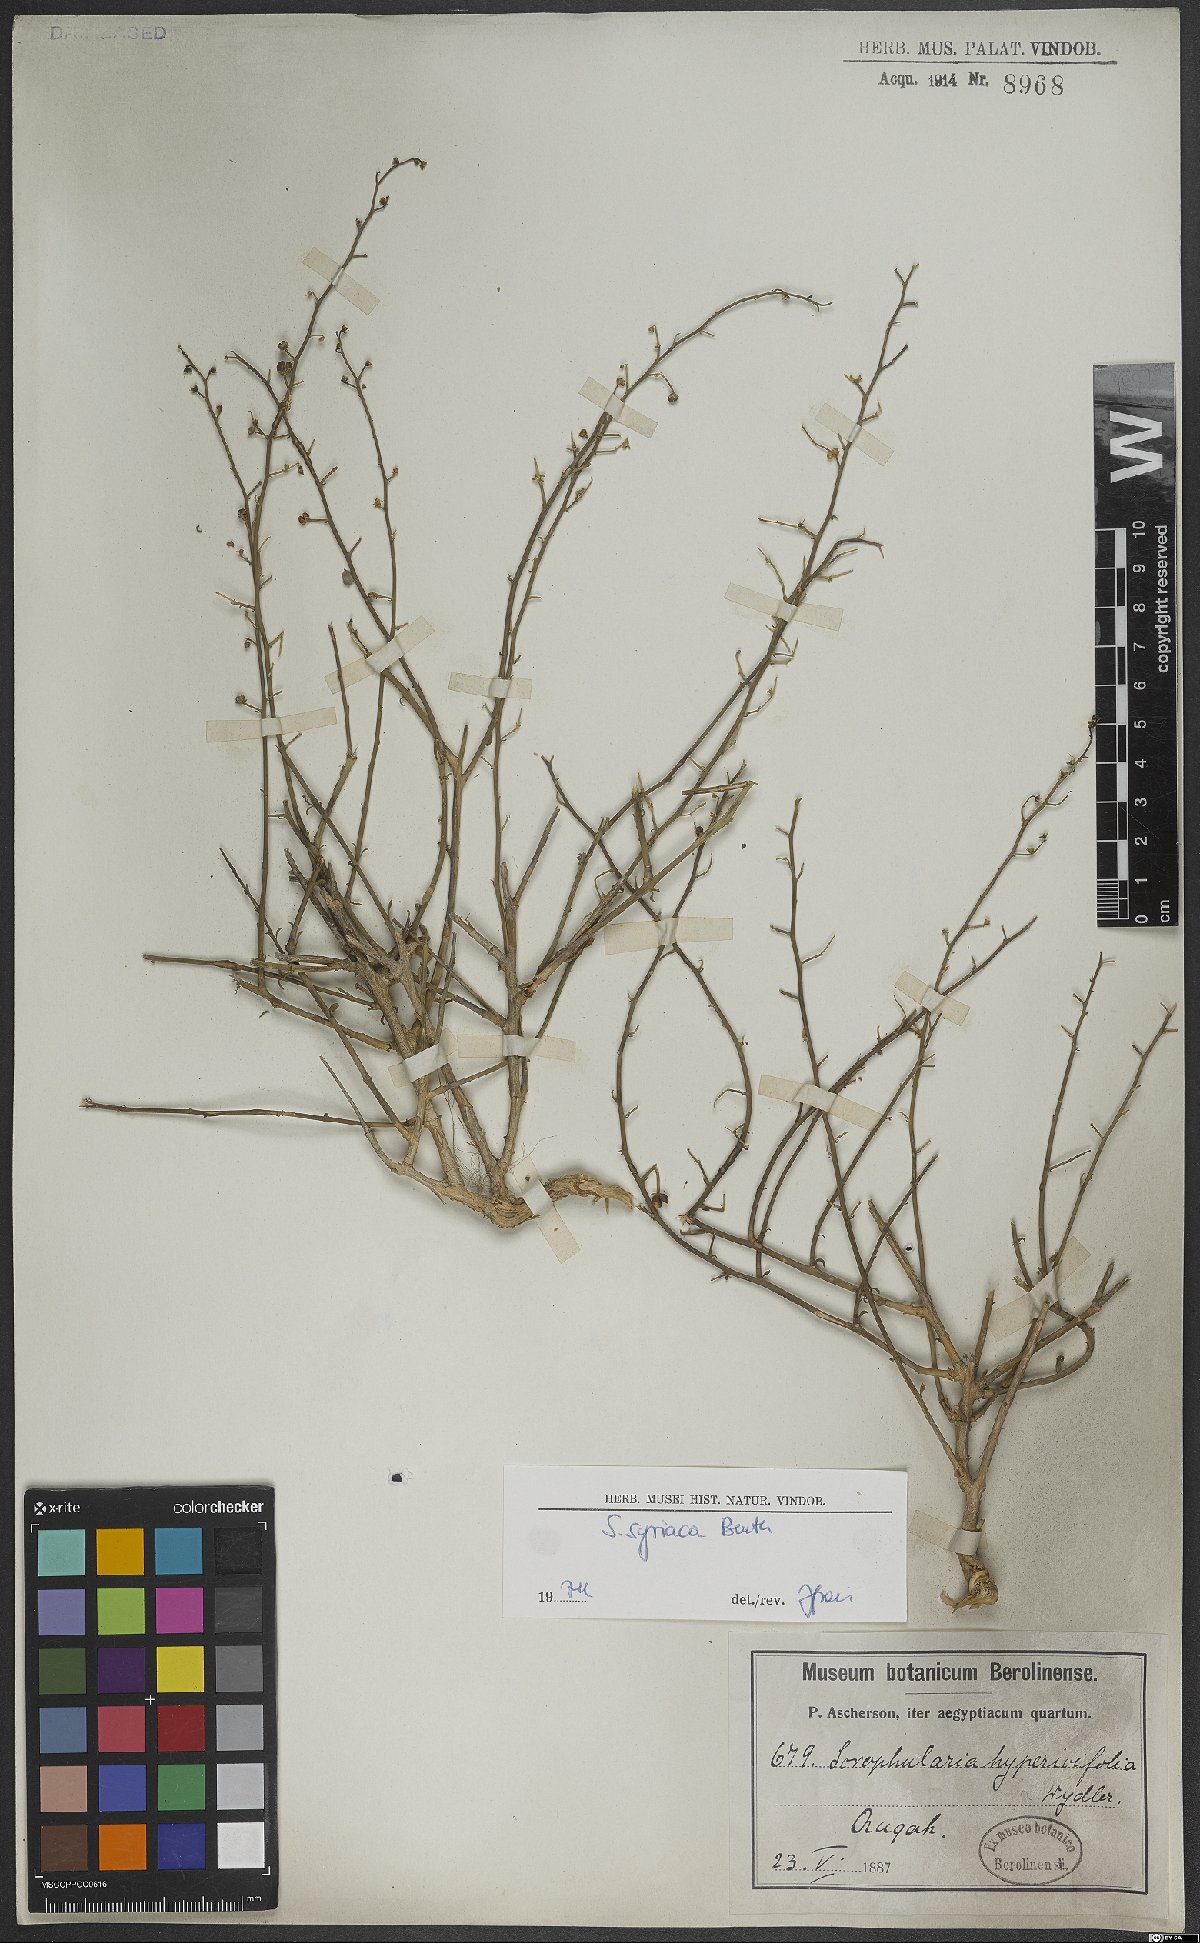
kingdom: Plantae
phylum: Tracheophyta
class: Magnoliopsida
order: Lamiales
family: Scrophulariaceae
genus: Scrophularia
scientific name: Scrophularia hypericifolia
